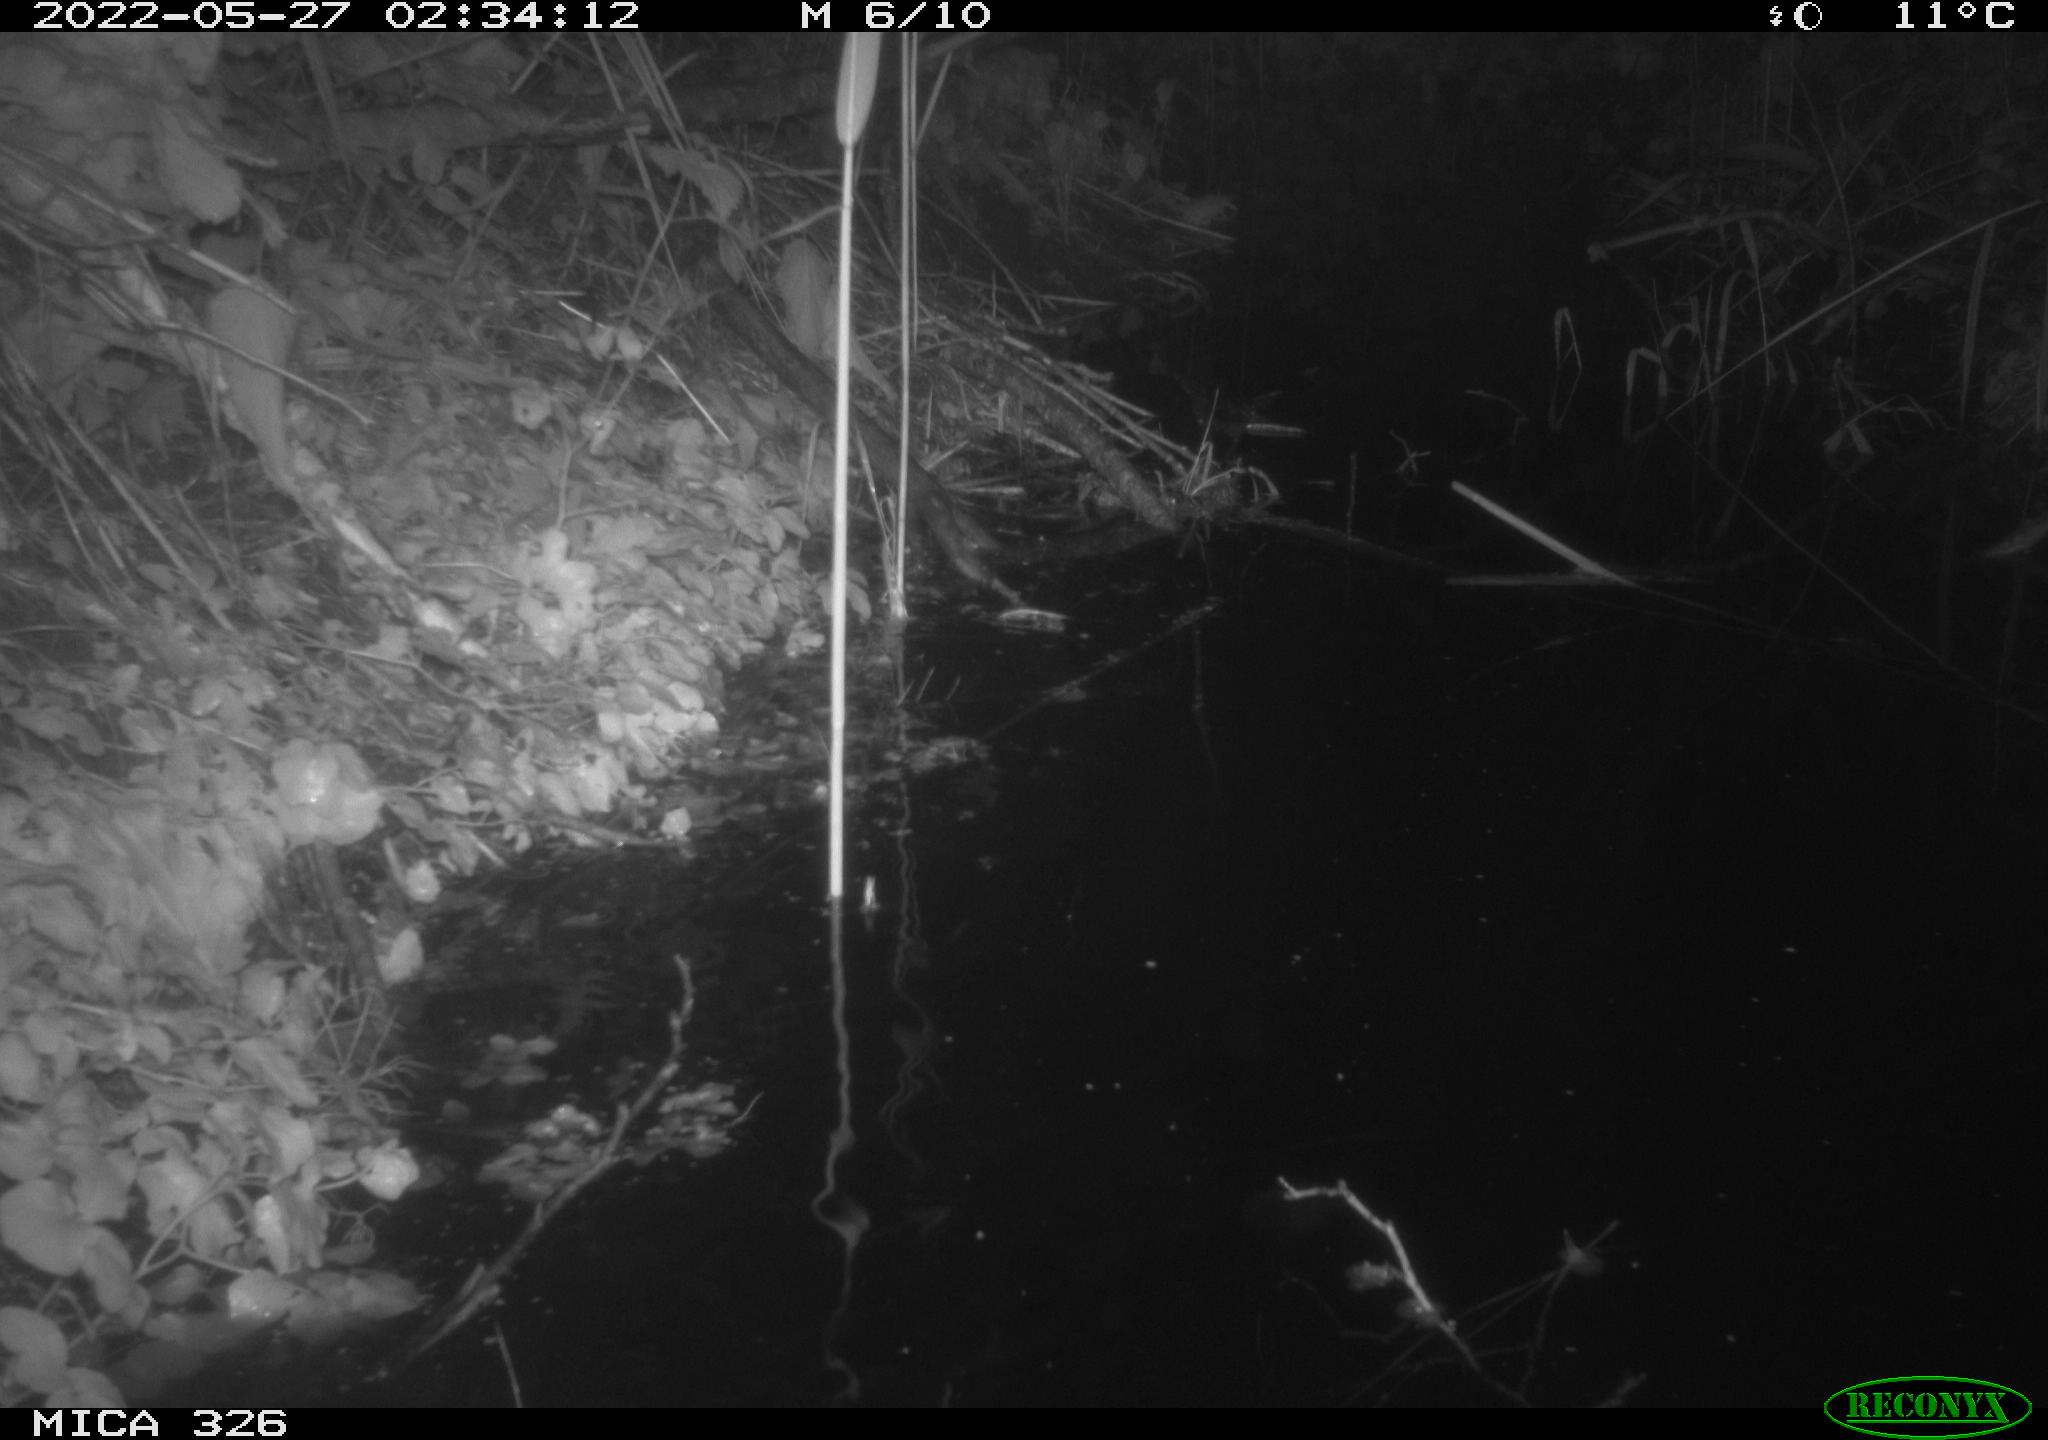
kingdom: Animalia
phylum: Chordata
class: Mammalia
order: Rodentia
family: Muridae
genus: Rattus
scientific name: Rattus norvegicus
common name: Brown rat
